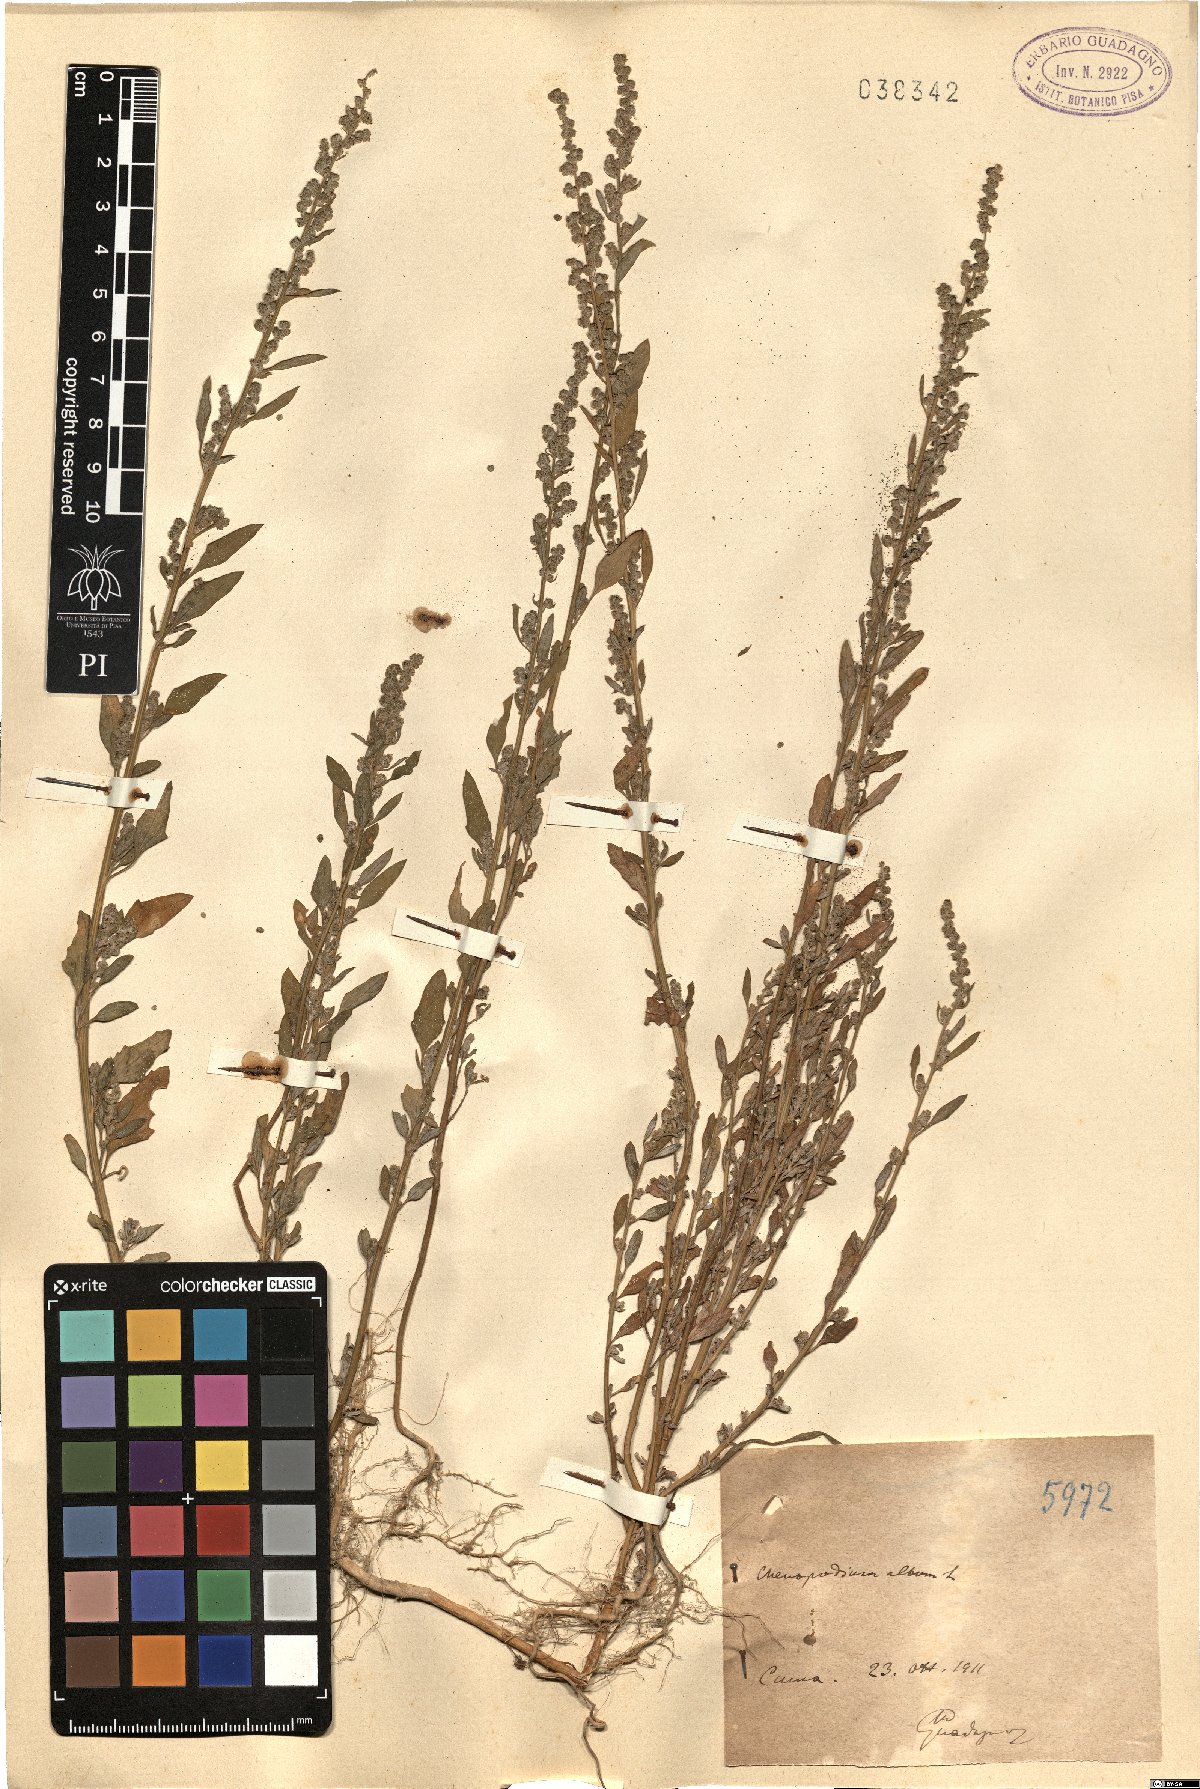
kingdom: Plantae
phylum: Tracheophyta
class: Magnoliopsida
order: Caryophyllales
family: Amaranthaceae
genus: Chenopodium
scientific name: Chenopodium album
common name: Fat-hen
